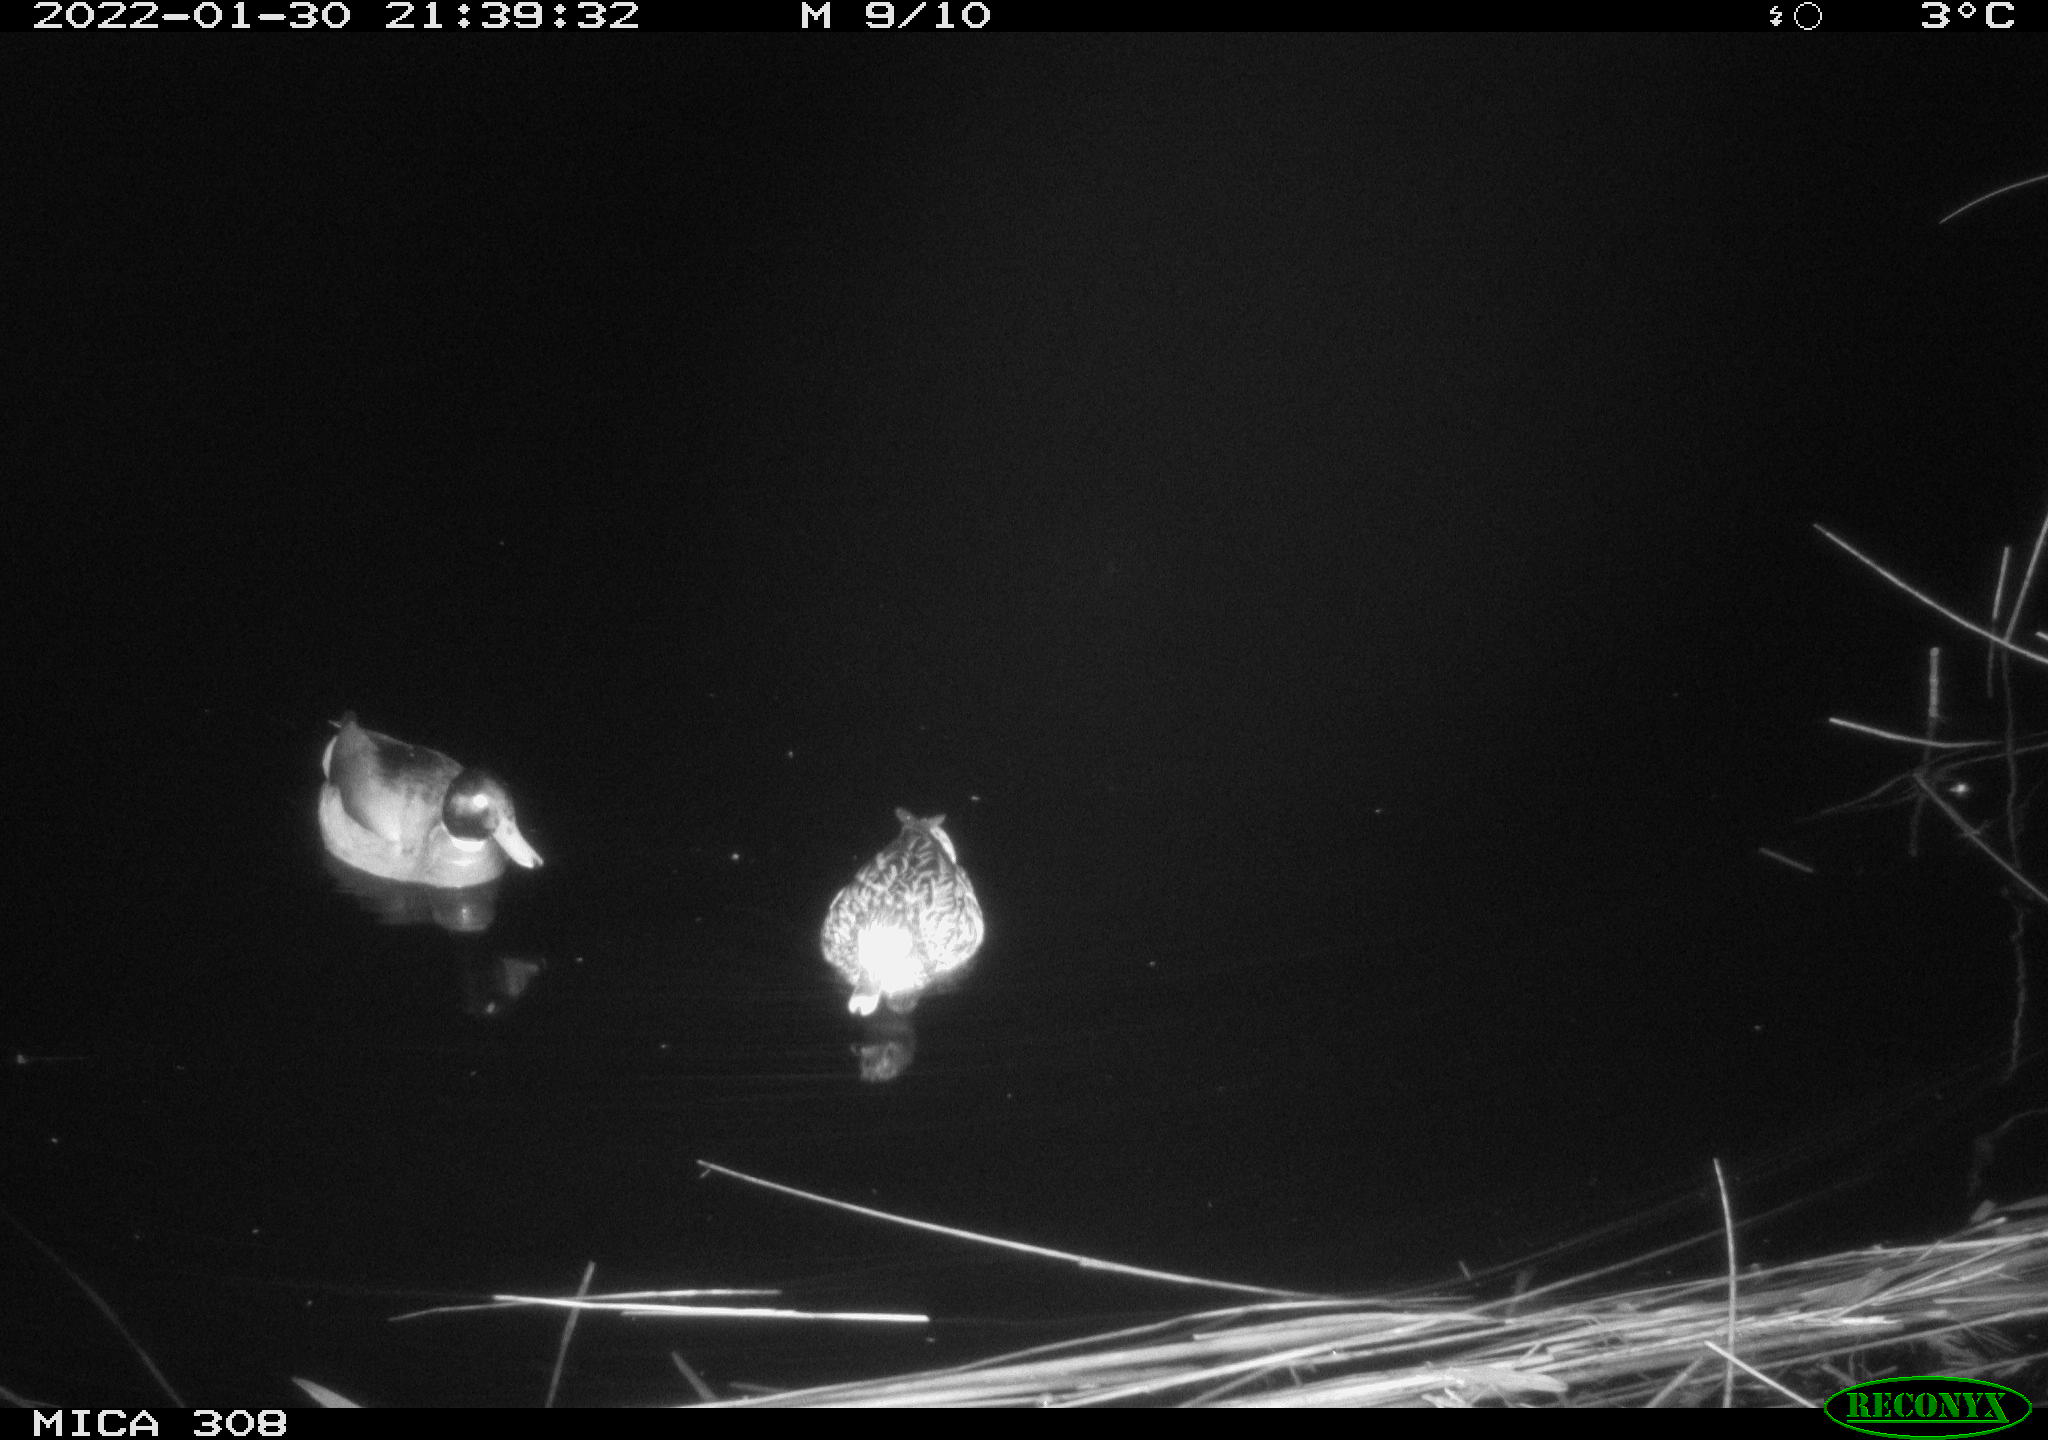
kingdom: Animalia
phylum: Chordata
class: Aves
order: Anseriformes
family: Anatidae
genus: Anas
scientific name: Anas
